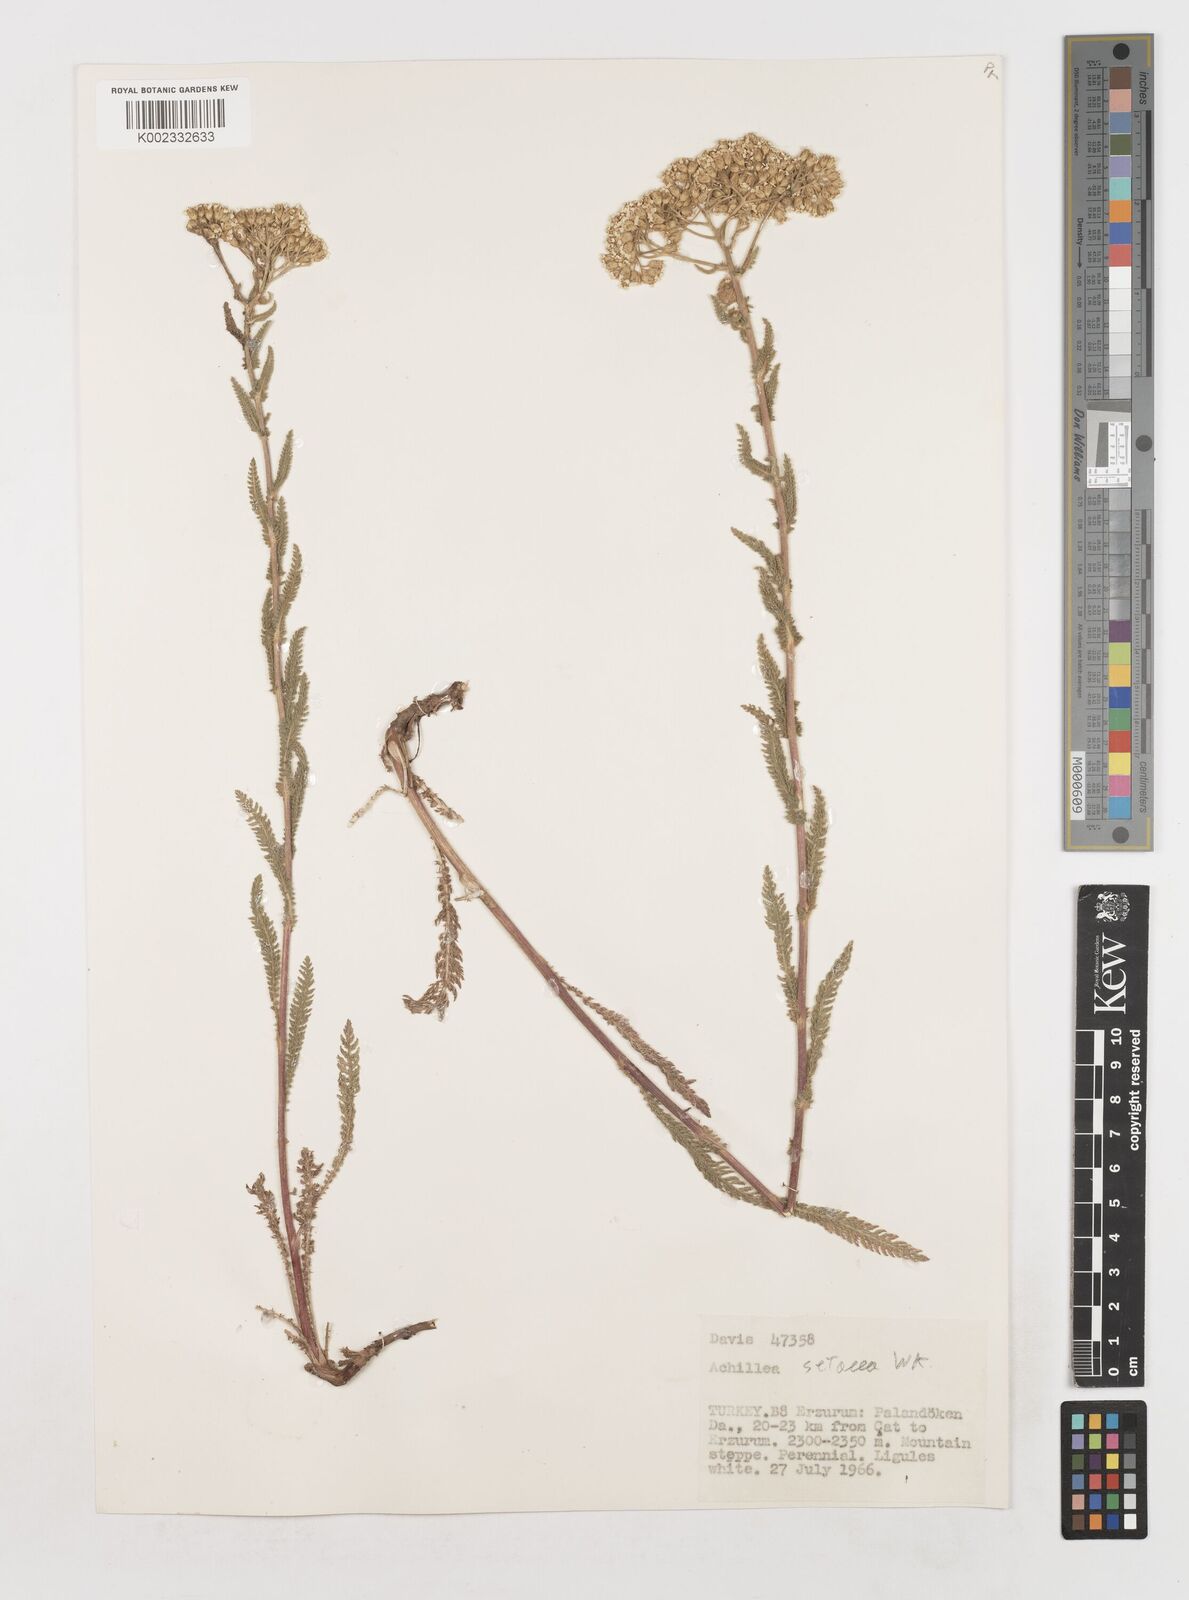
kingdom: Plantae
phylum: Tracheophyta
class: Magnoliopsida
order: Asterales
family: Asteraceae
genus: Achillea
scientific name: Achillea setacea
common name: Bristly yarrow
